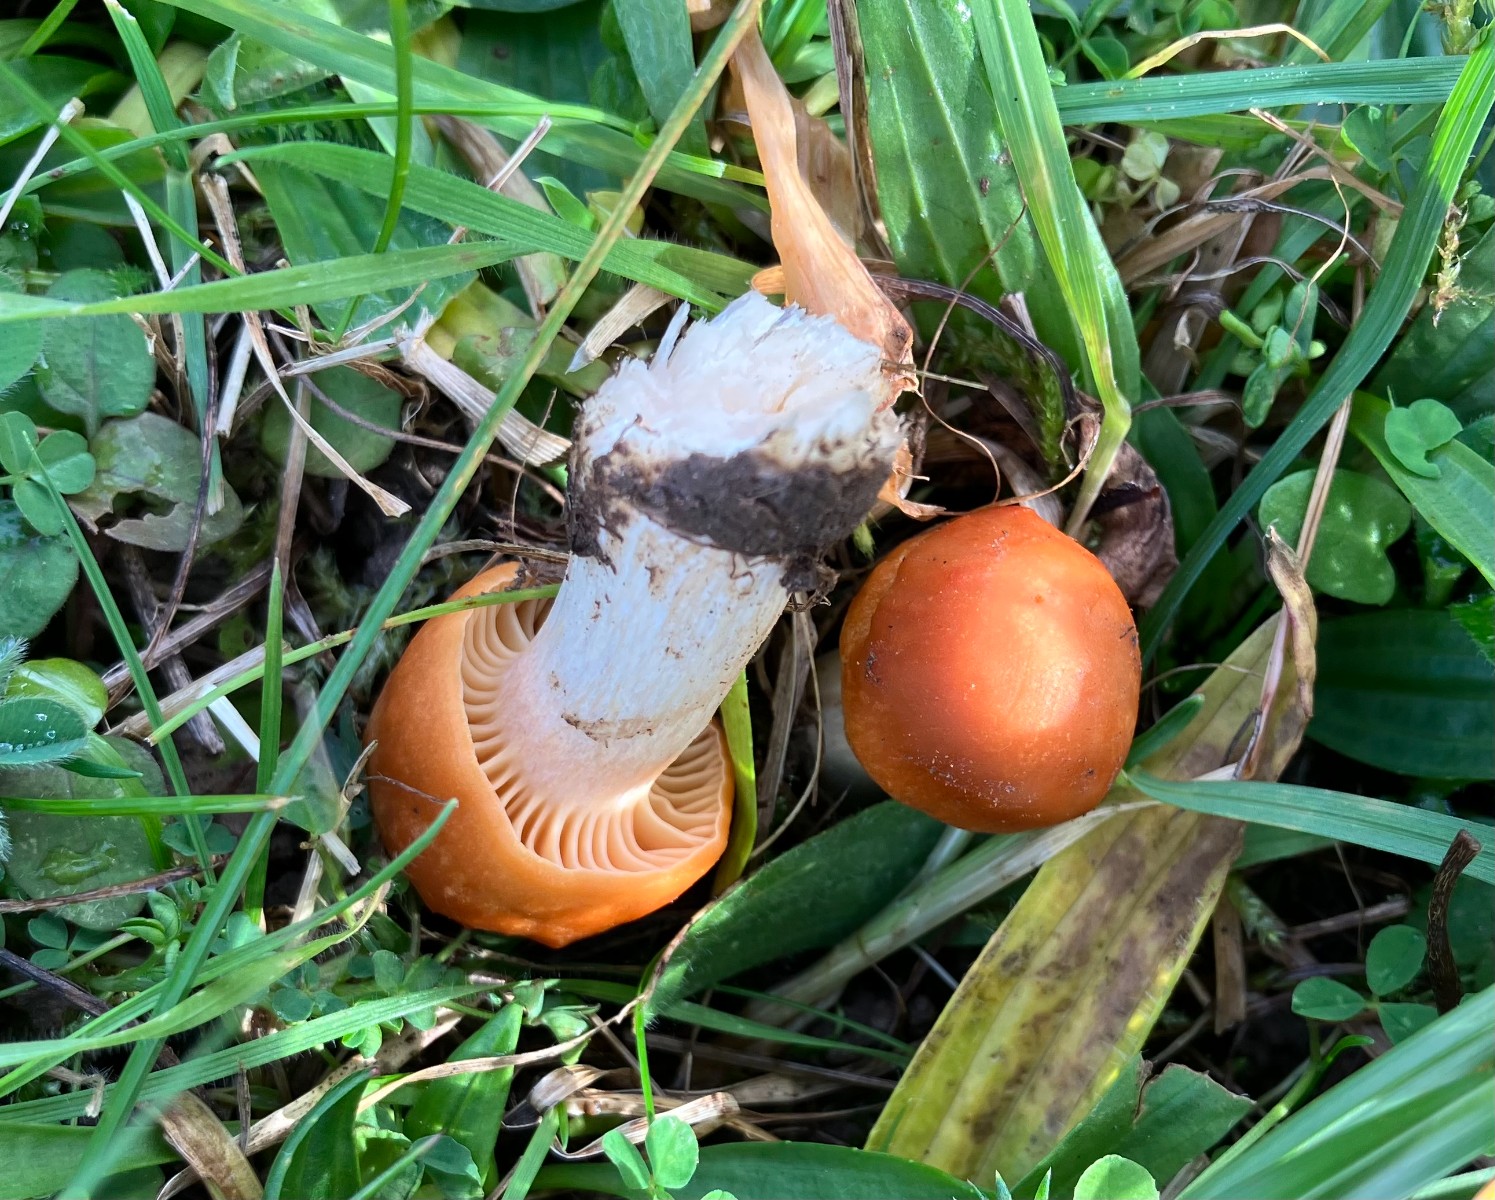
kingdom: Fungi
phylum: Basidiomycota
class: Agaricomycetes
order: Agaricales
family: Hygrophoraceae
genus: Cuphophyllus
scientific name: Cuphophyllus pratensis
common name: eng-vokshat
